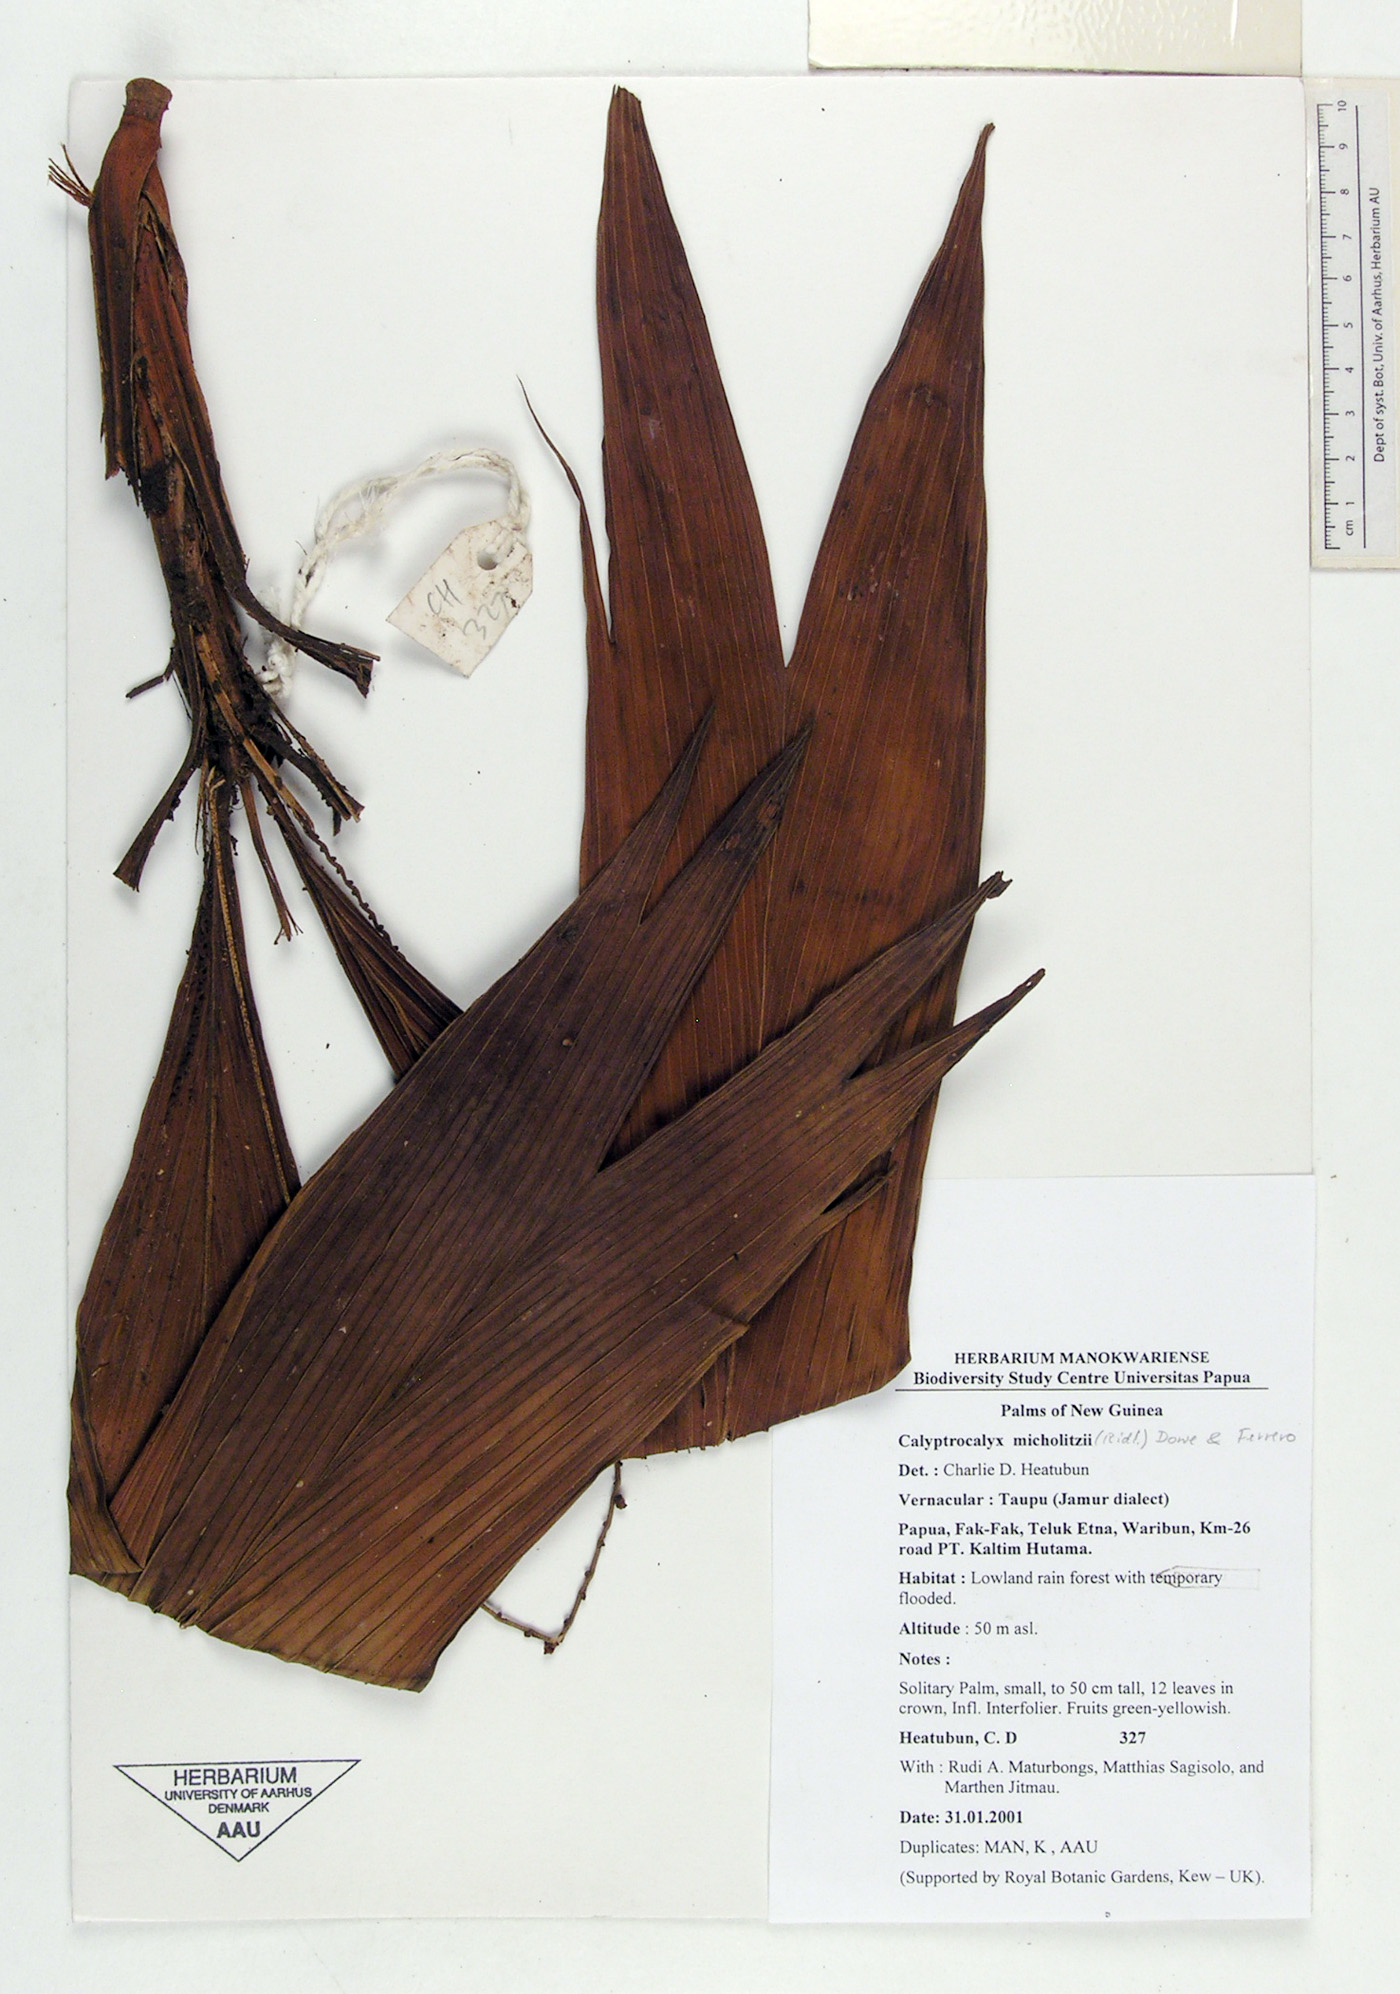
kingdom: Plantae
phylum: Tracheophyta
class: Liliopsida
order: Arecales
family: Arecaceae
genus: Calyptrocalyx
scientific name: Calyptrocalyx micholitzii
